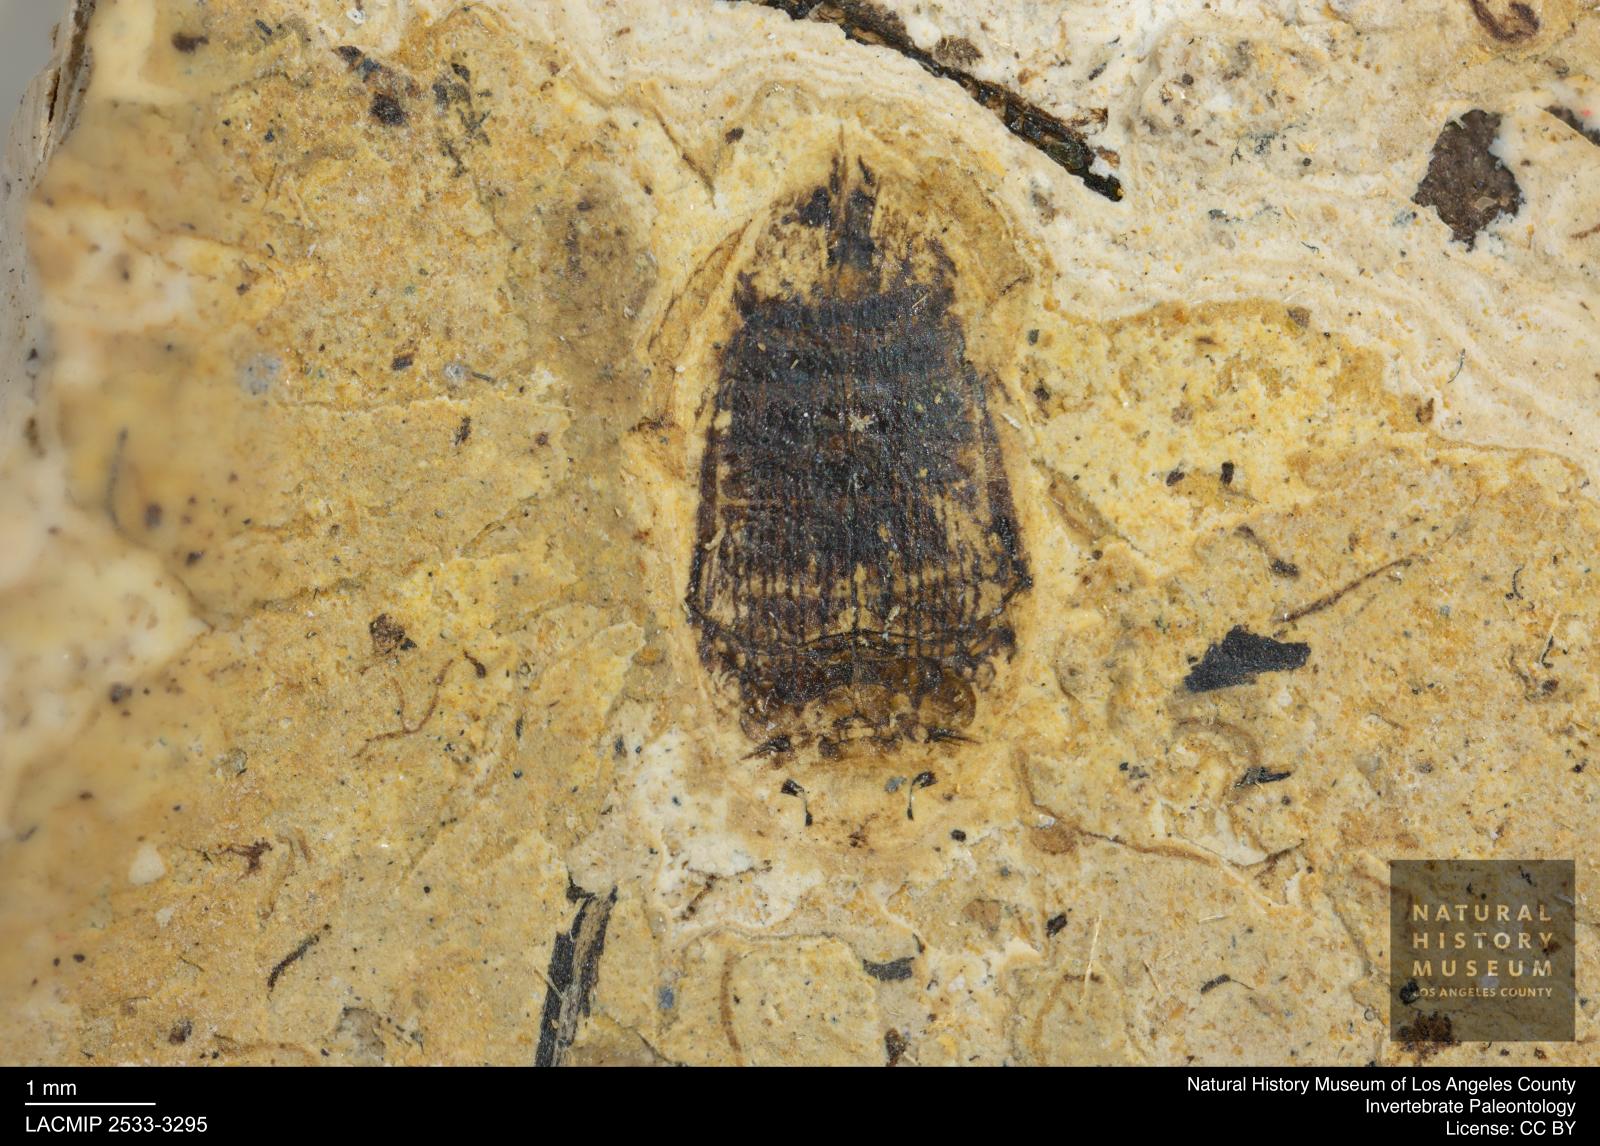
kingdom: Animalia
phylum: Arthropoda
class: Insecta
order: Coleoptera
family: Dytiscidae
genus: Laccophilus
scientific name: Laccophilus Palaeogyrinus strigatus
